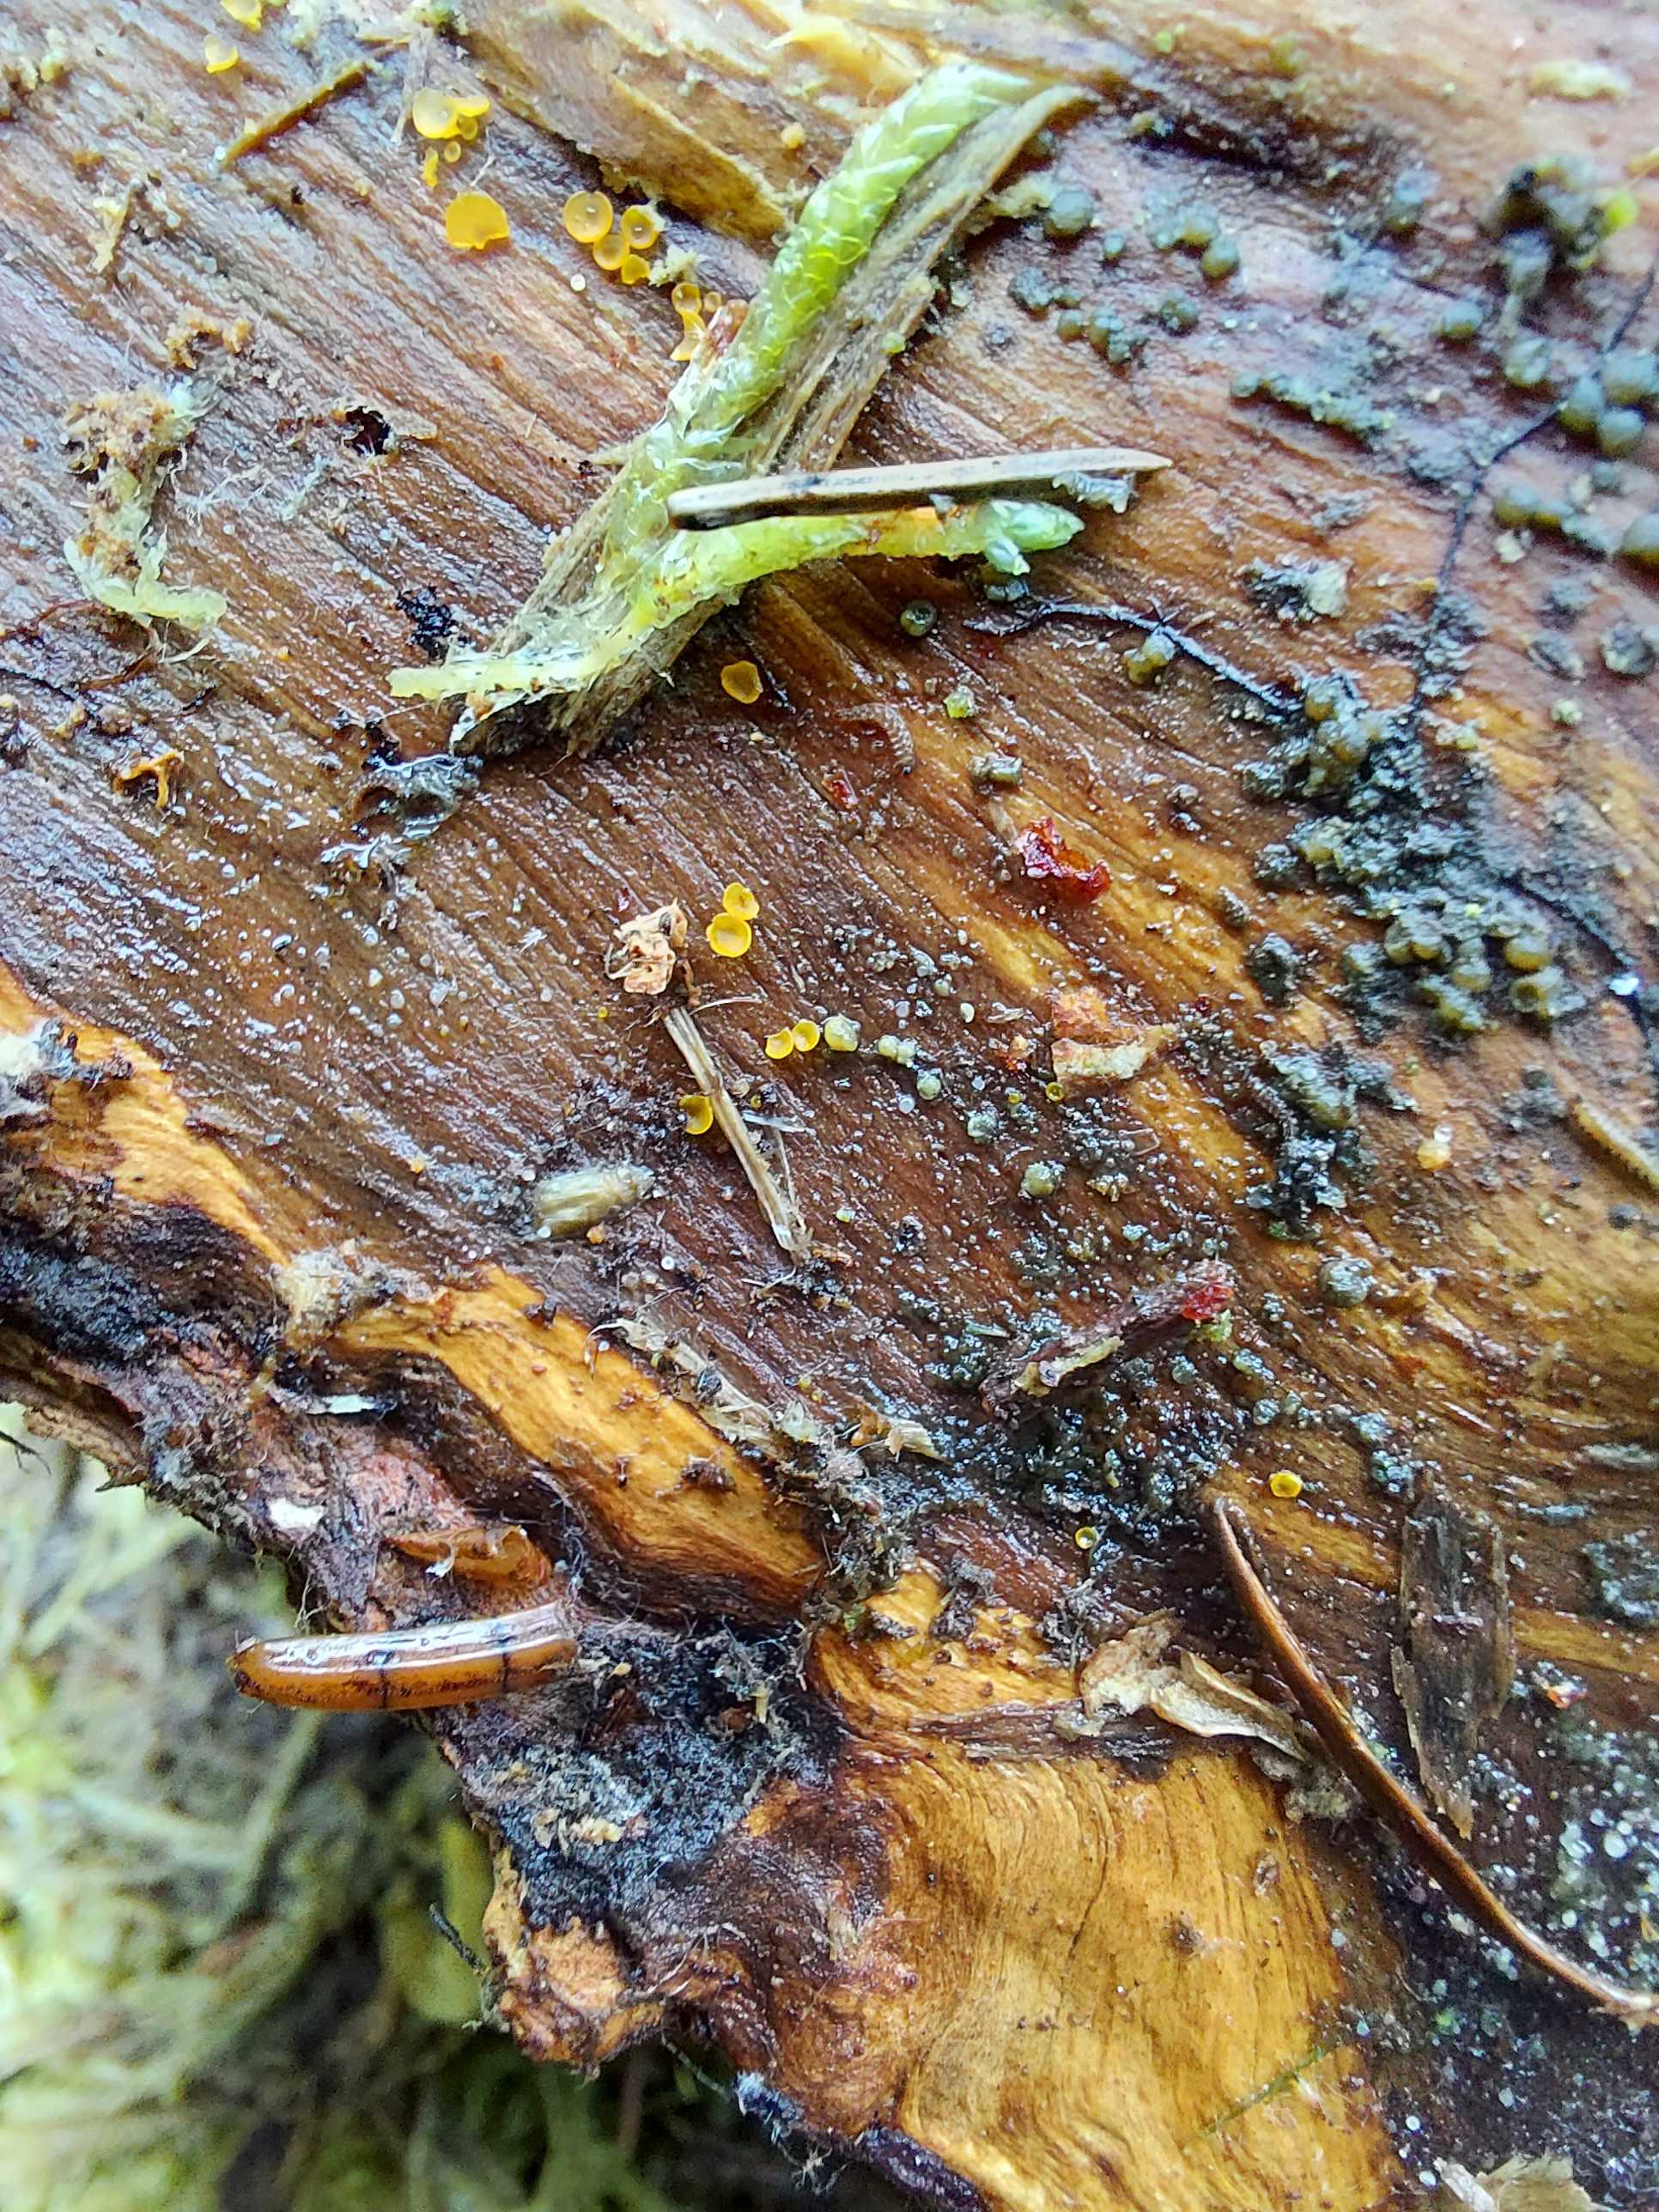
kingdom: Fungi
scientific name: Fungi
